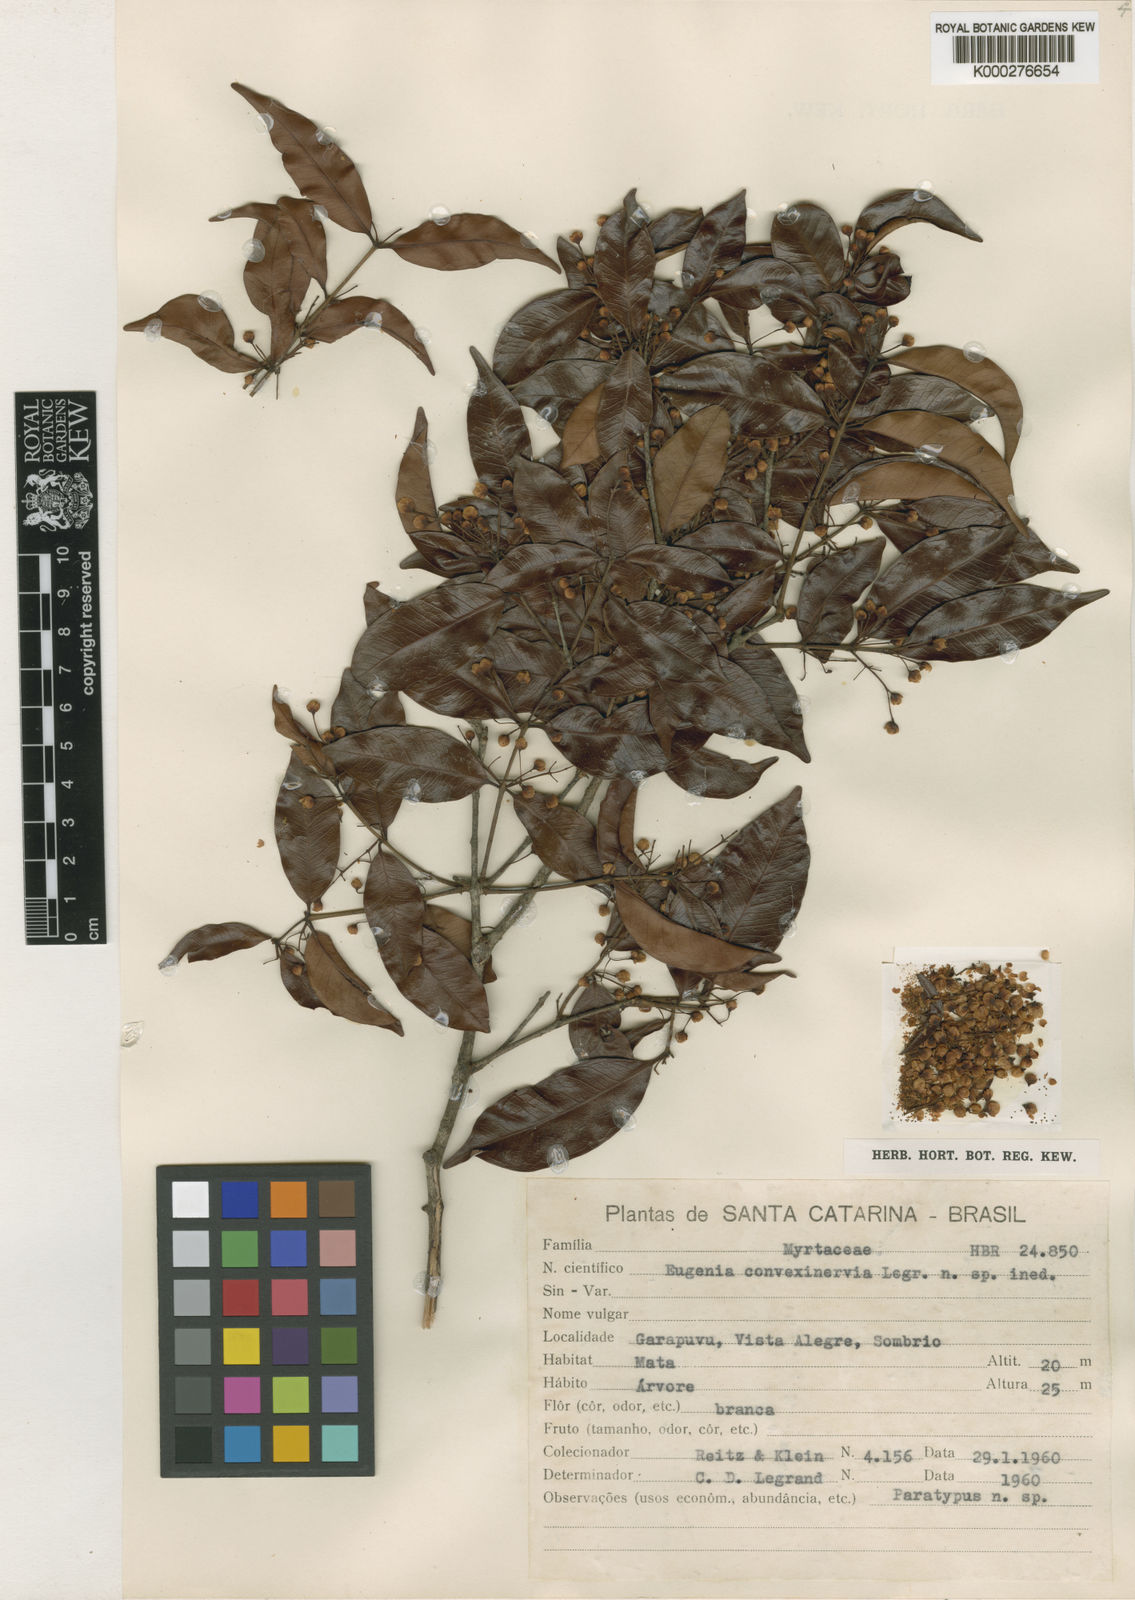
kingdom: Plantae
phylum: Tracheophyta
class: Magnoliopsida
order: Myrtales
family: Myrtaceae
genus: Eugenia
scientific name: Eugenia convexinervia
